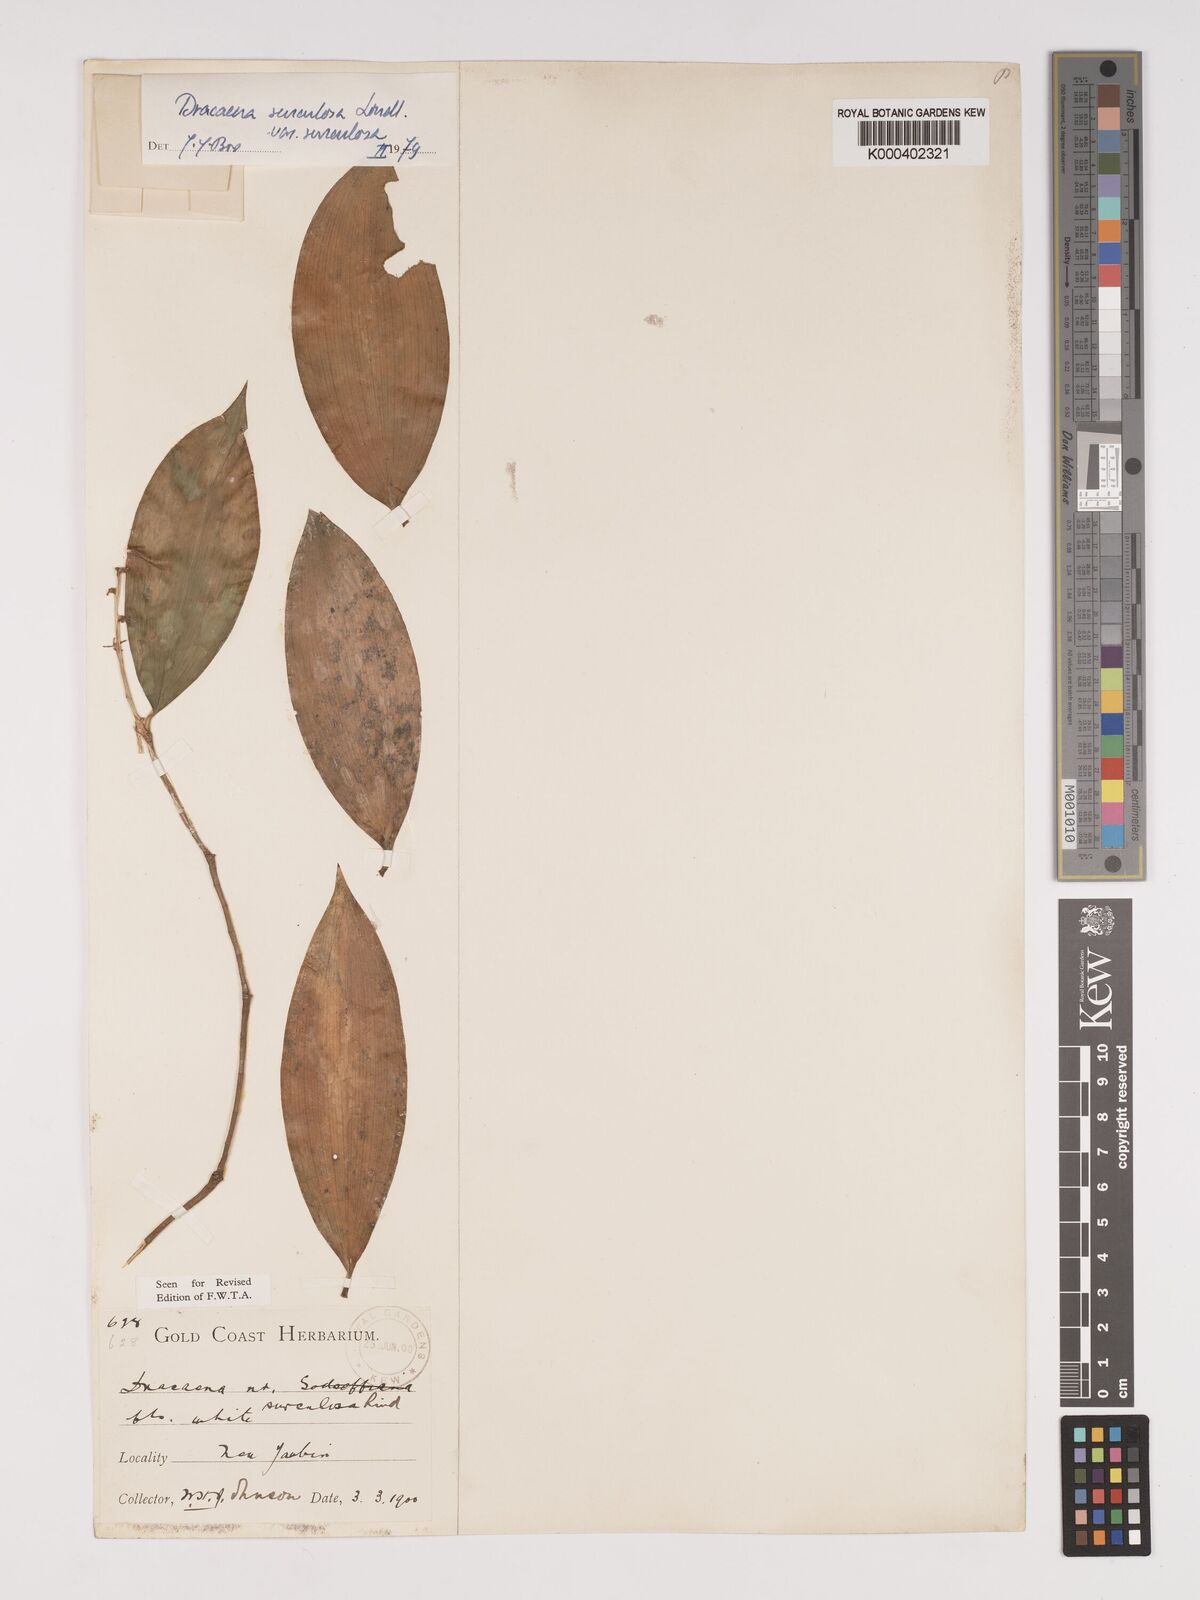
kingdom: Plantae
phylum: Tracheophyta
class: Liliopsida
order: Asparagales
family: Asparagaceae
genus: Dracaena
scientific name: Dracaena surculosa
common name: Spotted dracaena
